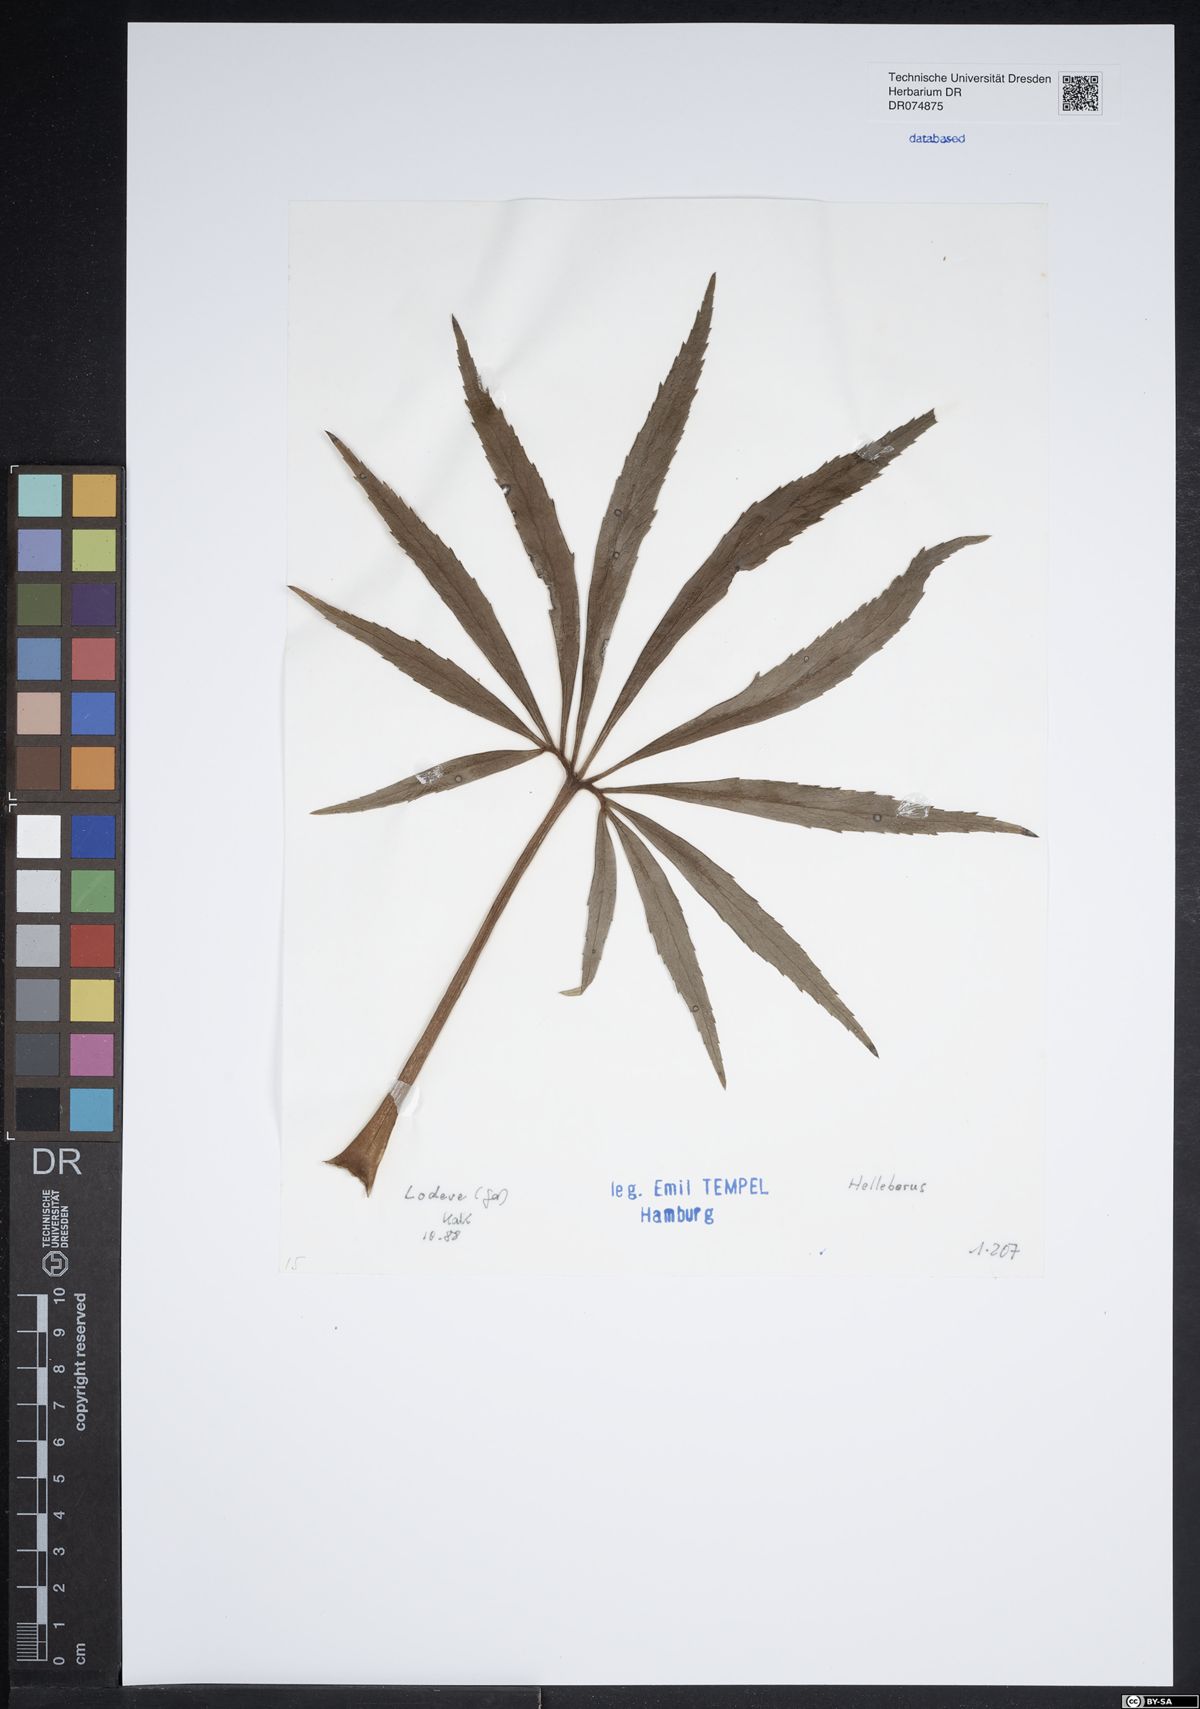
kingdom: Plantae
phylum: Tracheophyta
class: Magnoliopsida
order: Ranunculales
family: Ranunculaceae
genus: Helleborus
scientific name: Helleborus
